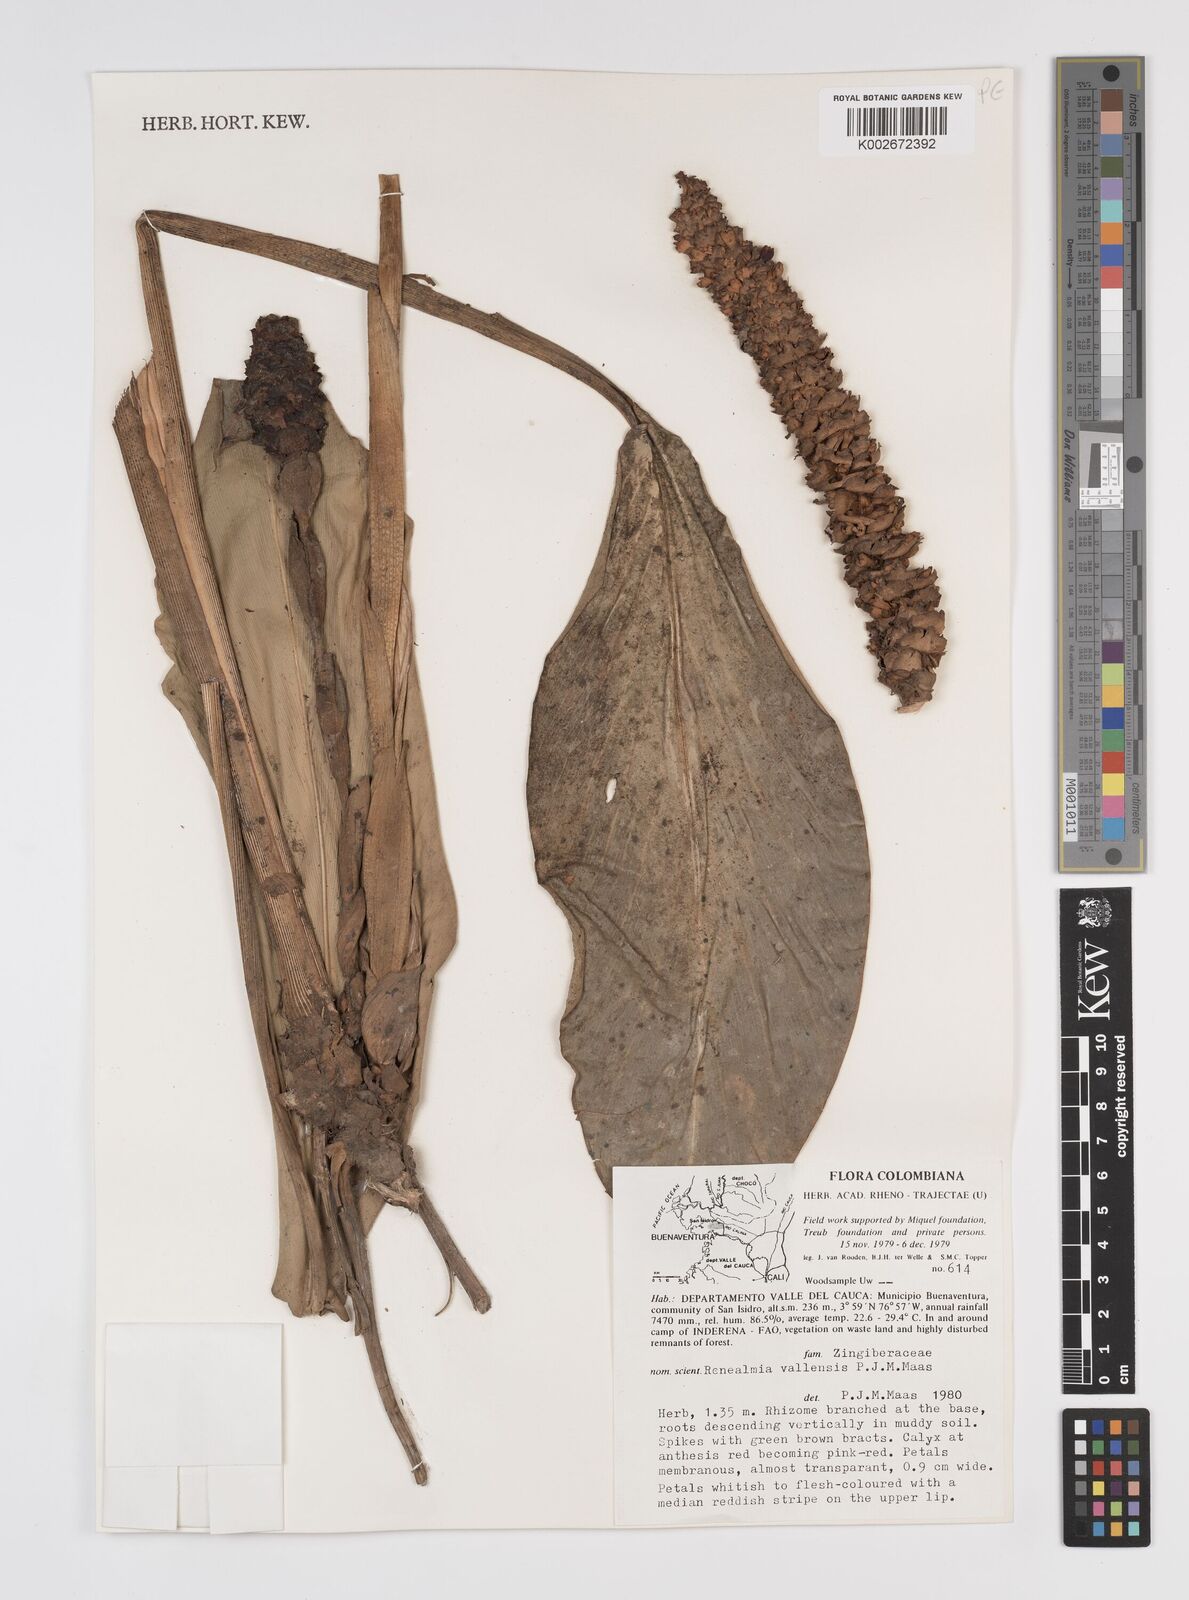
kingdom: Plantae
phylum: Tracheophyta
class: Liliopsida
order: Zingiberales
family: Zingiberaceae
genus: Renealmia
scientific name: Renealmia vallensis
